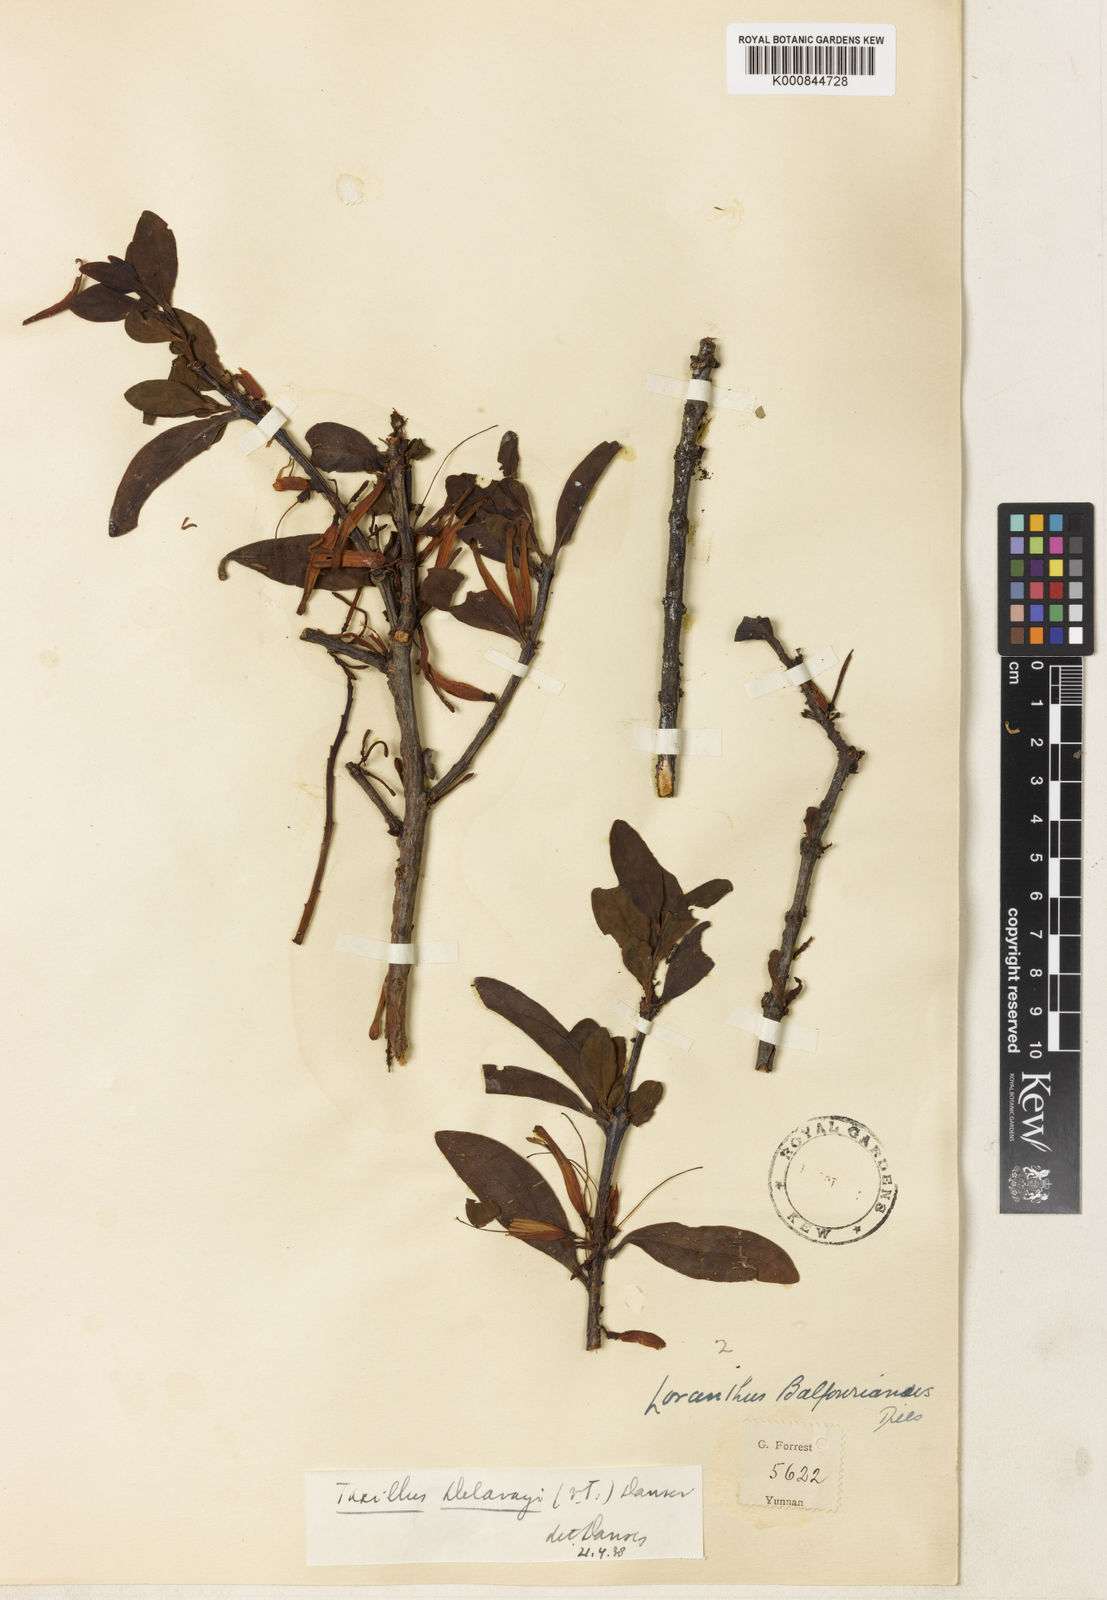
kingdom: Plantae
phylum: Tracheophyta
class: Magnoliopsida
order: Santalales
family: Loranthaceae
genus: Taxillus
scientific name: Taxillus delavayi
